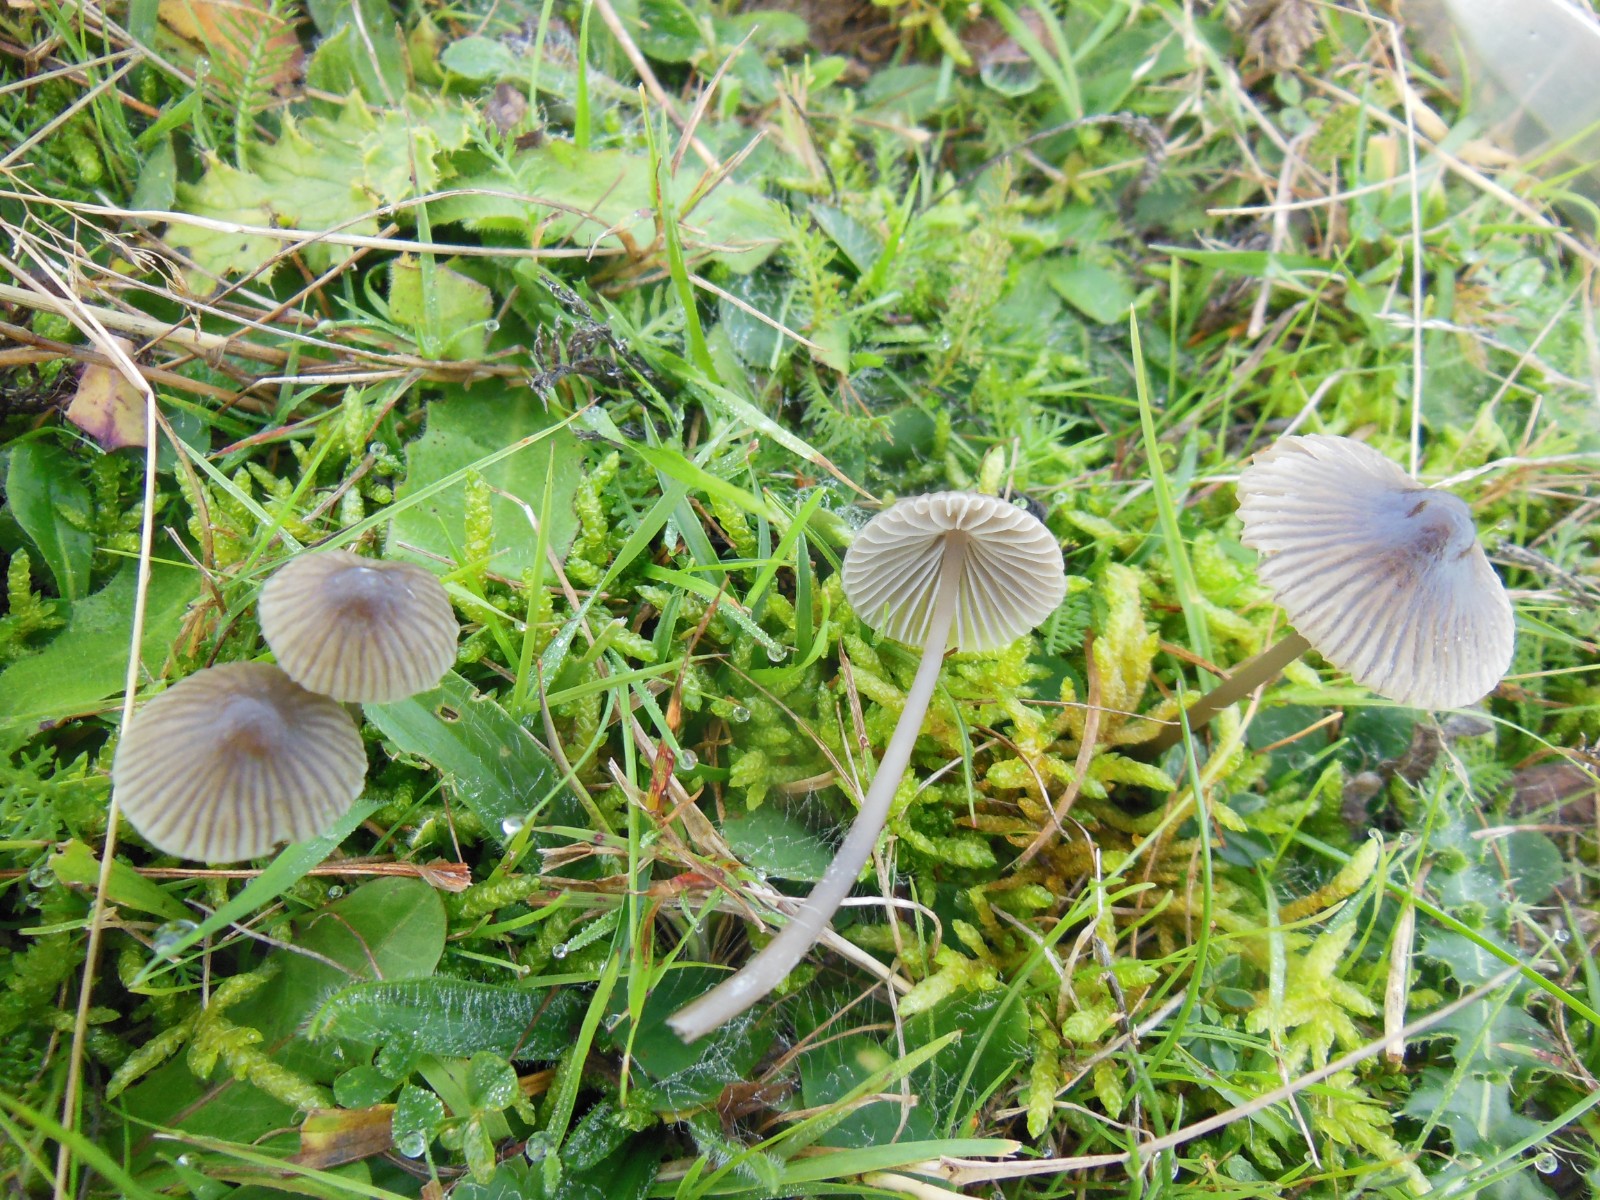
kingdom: Fungi
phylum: Basidiomycota
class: Agaricomycetes
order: Agaricales
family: Mycenaceae
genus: Mycena
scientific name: Mycena aetites
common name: plæne-huesvamp
